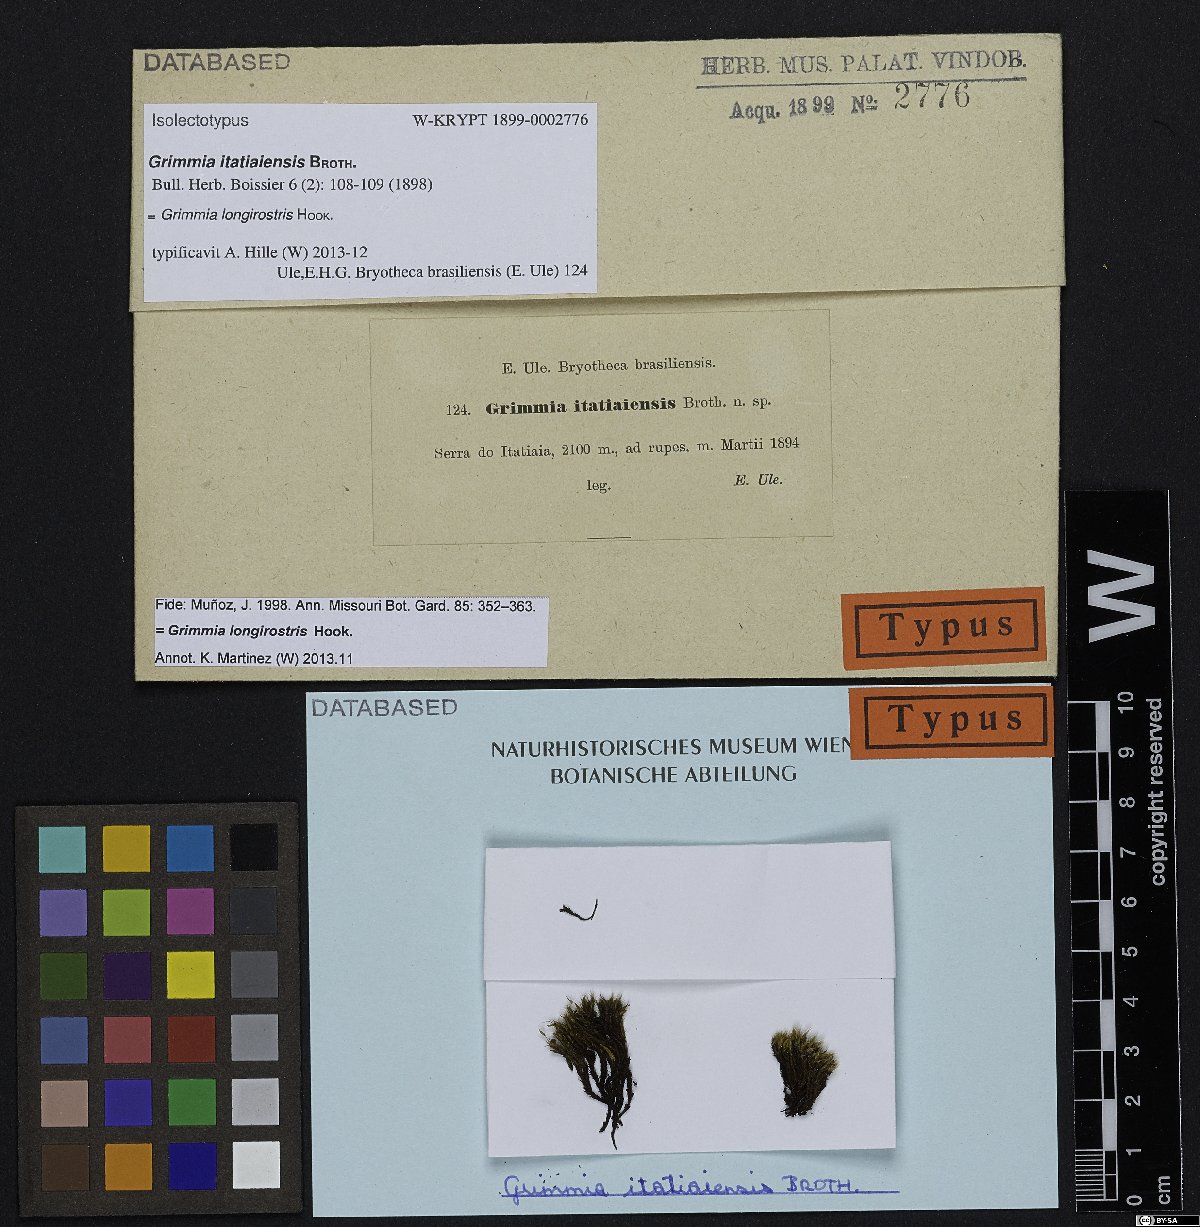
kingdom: Plantae
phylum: Bryophyta
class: Bryopsida
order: Grimmiales
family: Grimmiaceae
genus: Grimmia
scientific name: Grimmia longirostris
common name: Long-beaked grimmia
